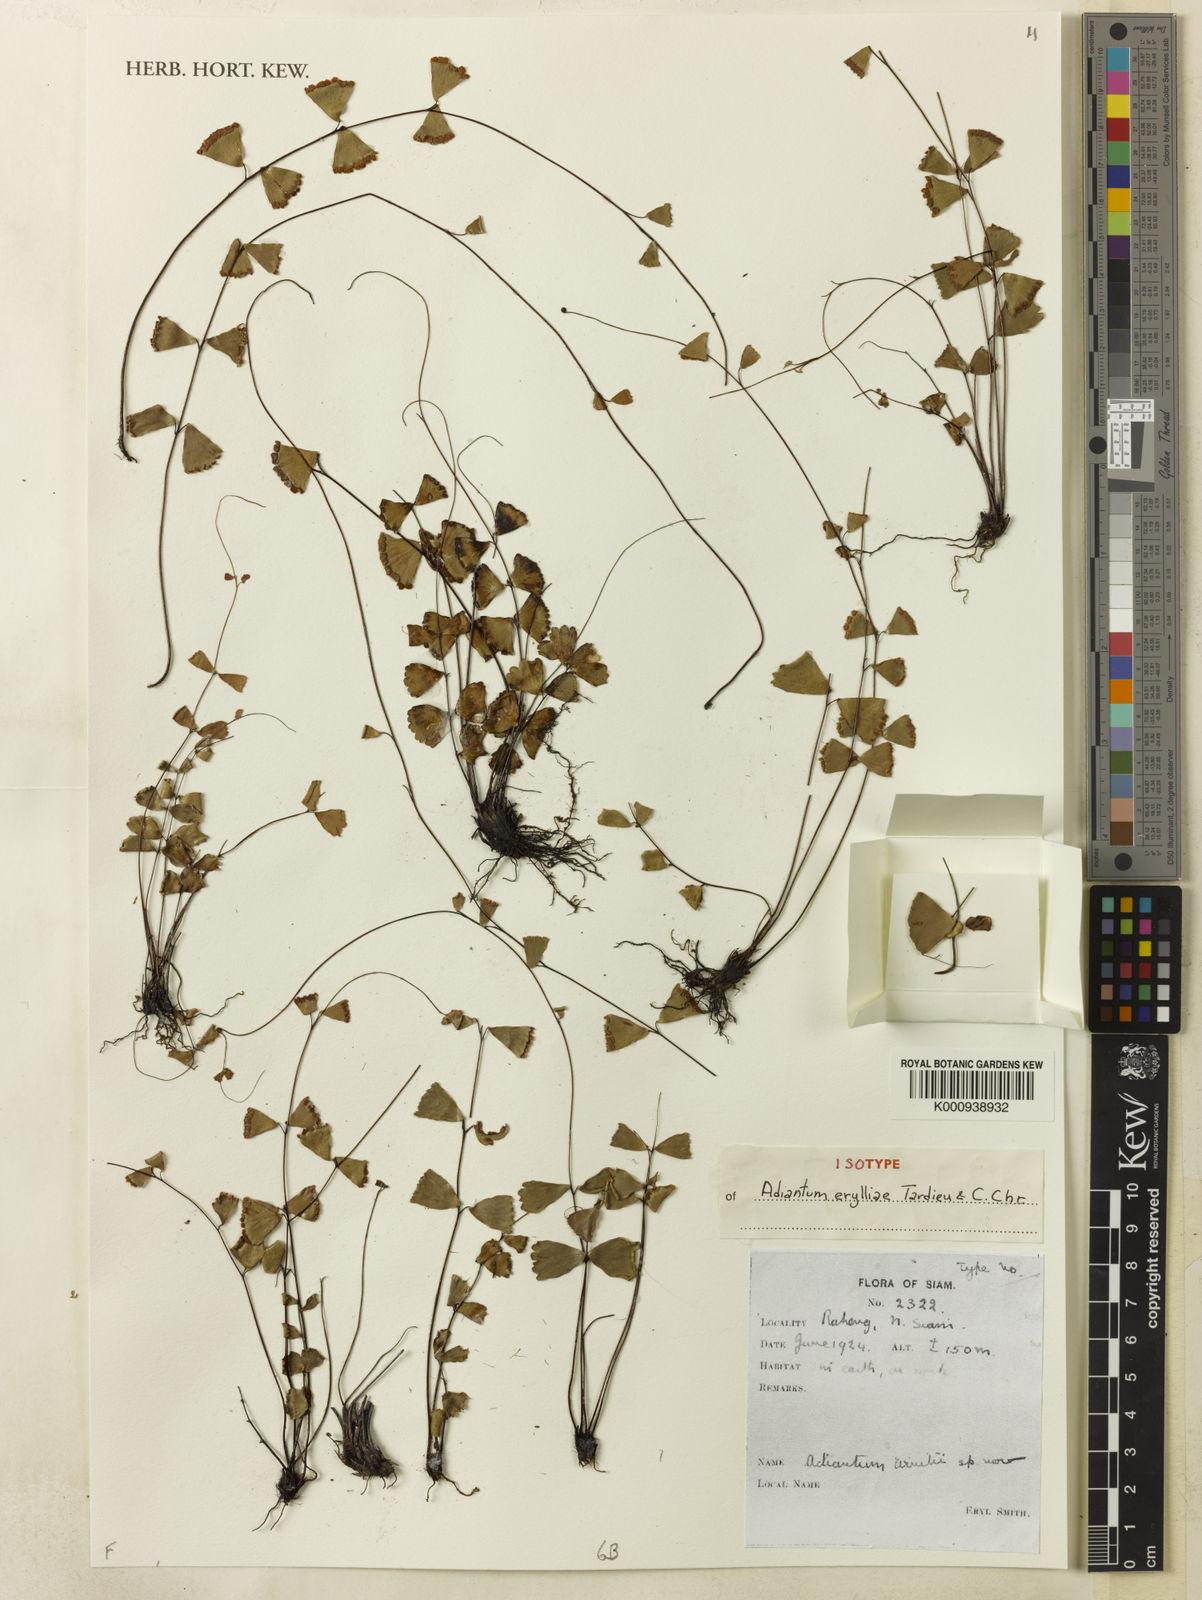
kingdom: Plantae
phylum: Tracheophyta
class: Polypodiopsida
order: Polypodiales
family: Pteridaceae
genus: Adiantum
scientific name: Adiantum erylliae
